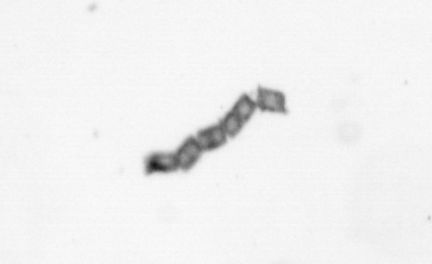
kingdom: Chromista
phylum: Ochrophyta
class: Bacillariophyceae
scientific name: Bacillariophyceae
